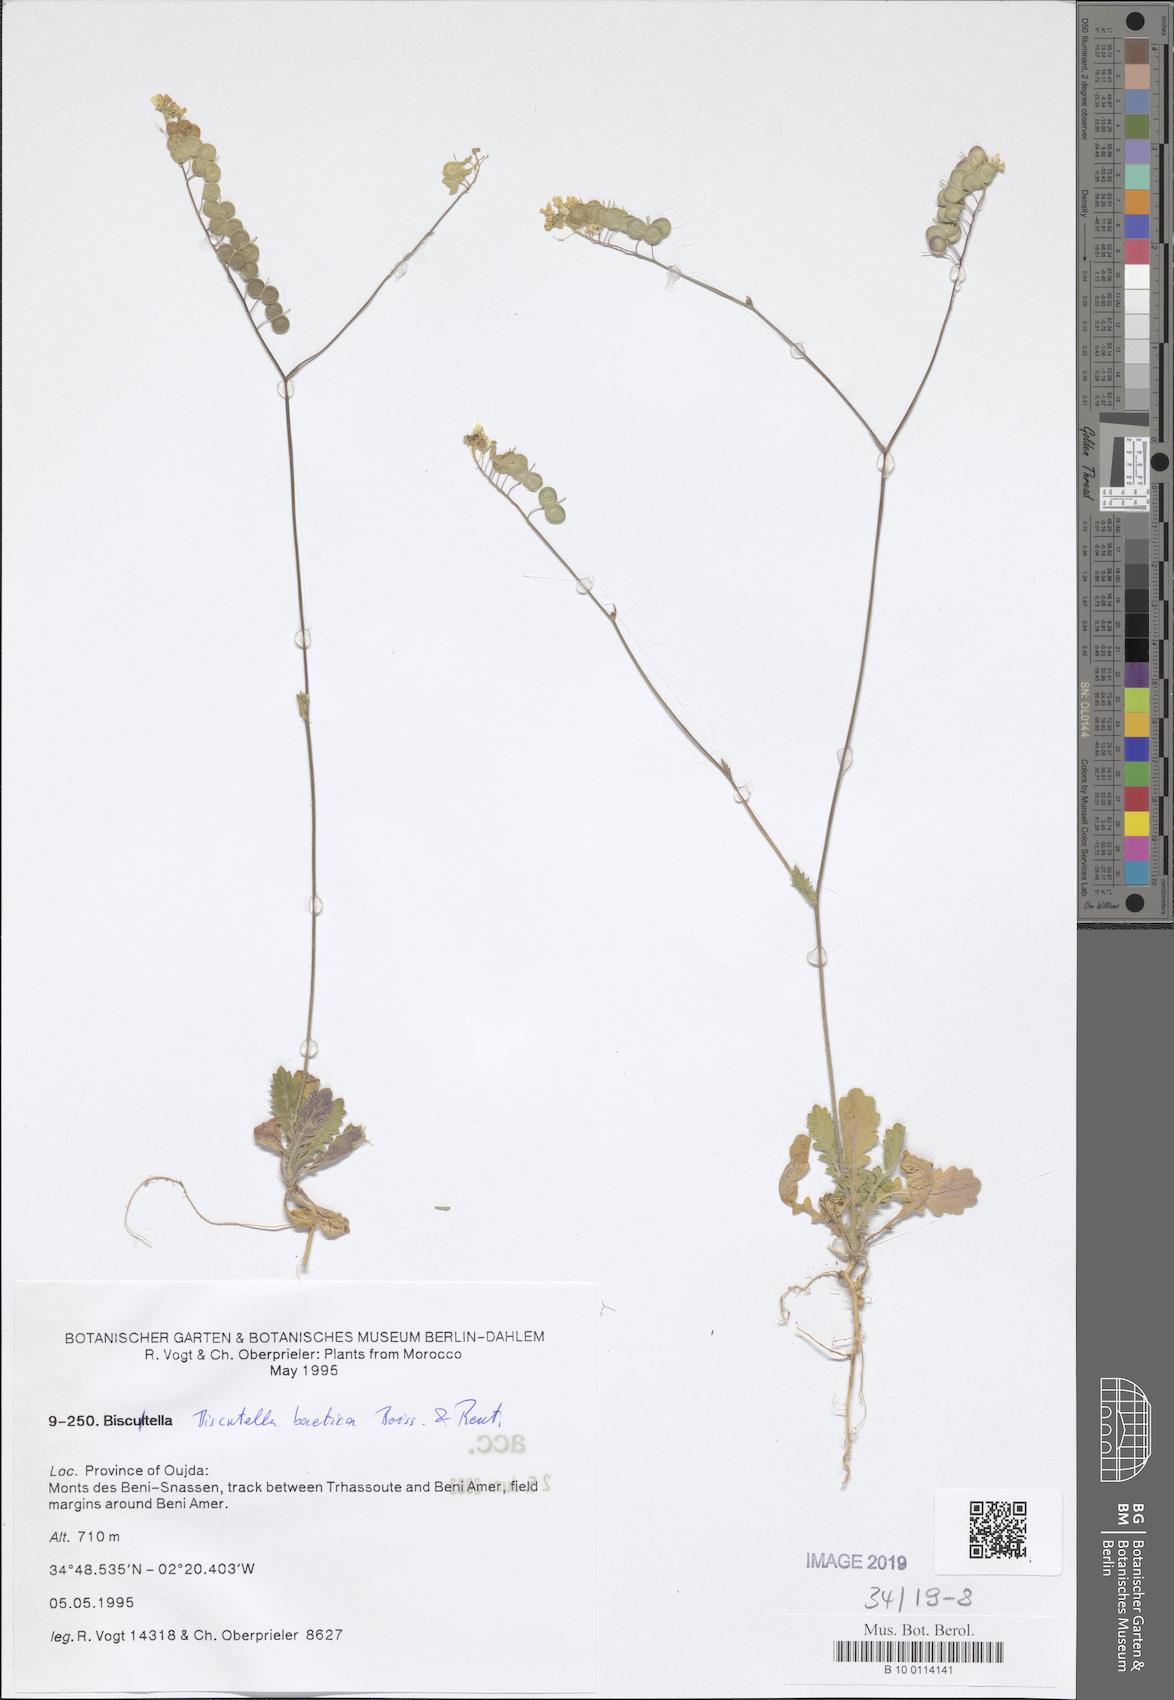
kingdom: Plantae
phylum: Tracheophyta
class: Magnoliopsida
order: Brassicales
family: Brassicaceae
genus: Biscutella
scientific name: Biscutella eriocarpa
